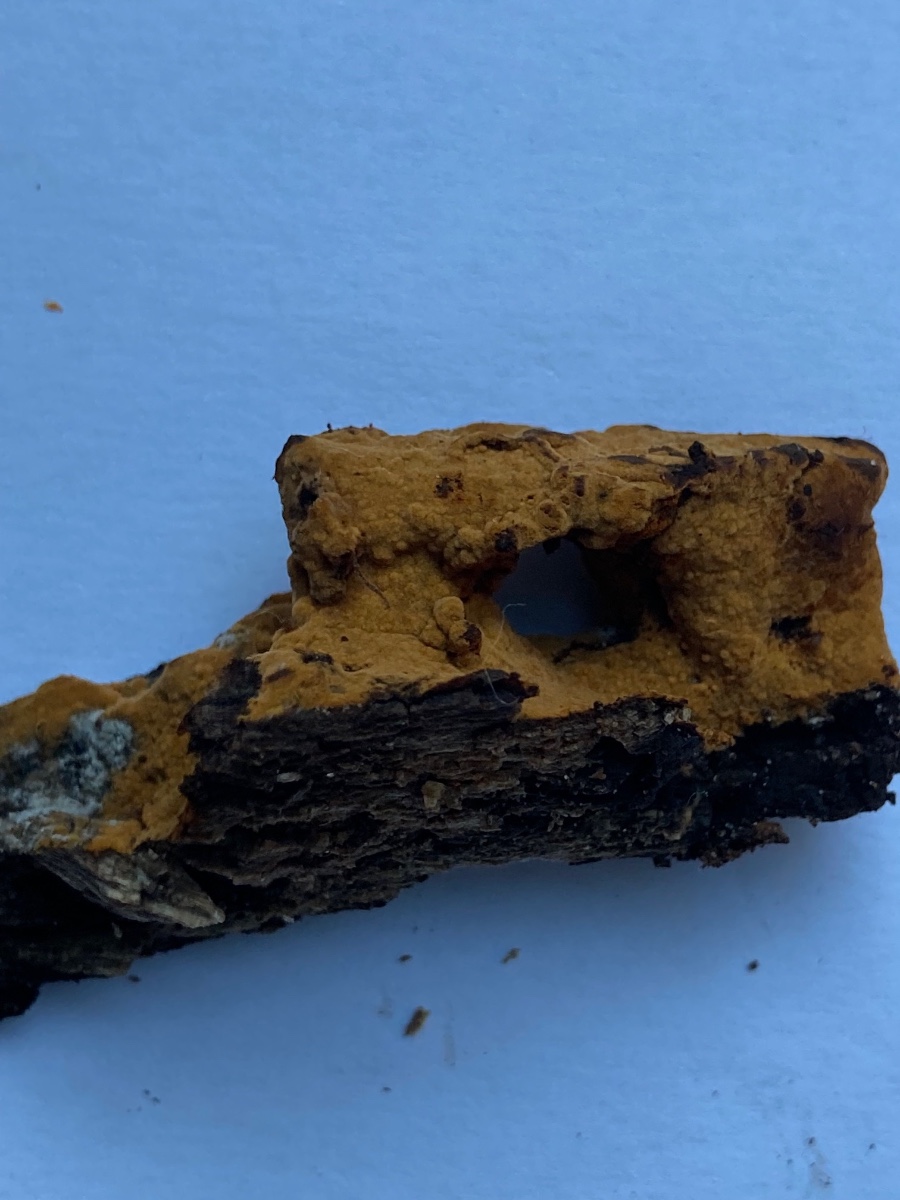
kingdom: Fungi
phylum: Basidiomycota
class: Agaricomycetes
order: Thelephorales
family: Thelephoraceae
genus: Tomentella
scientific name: Tomentella bryophila
